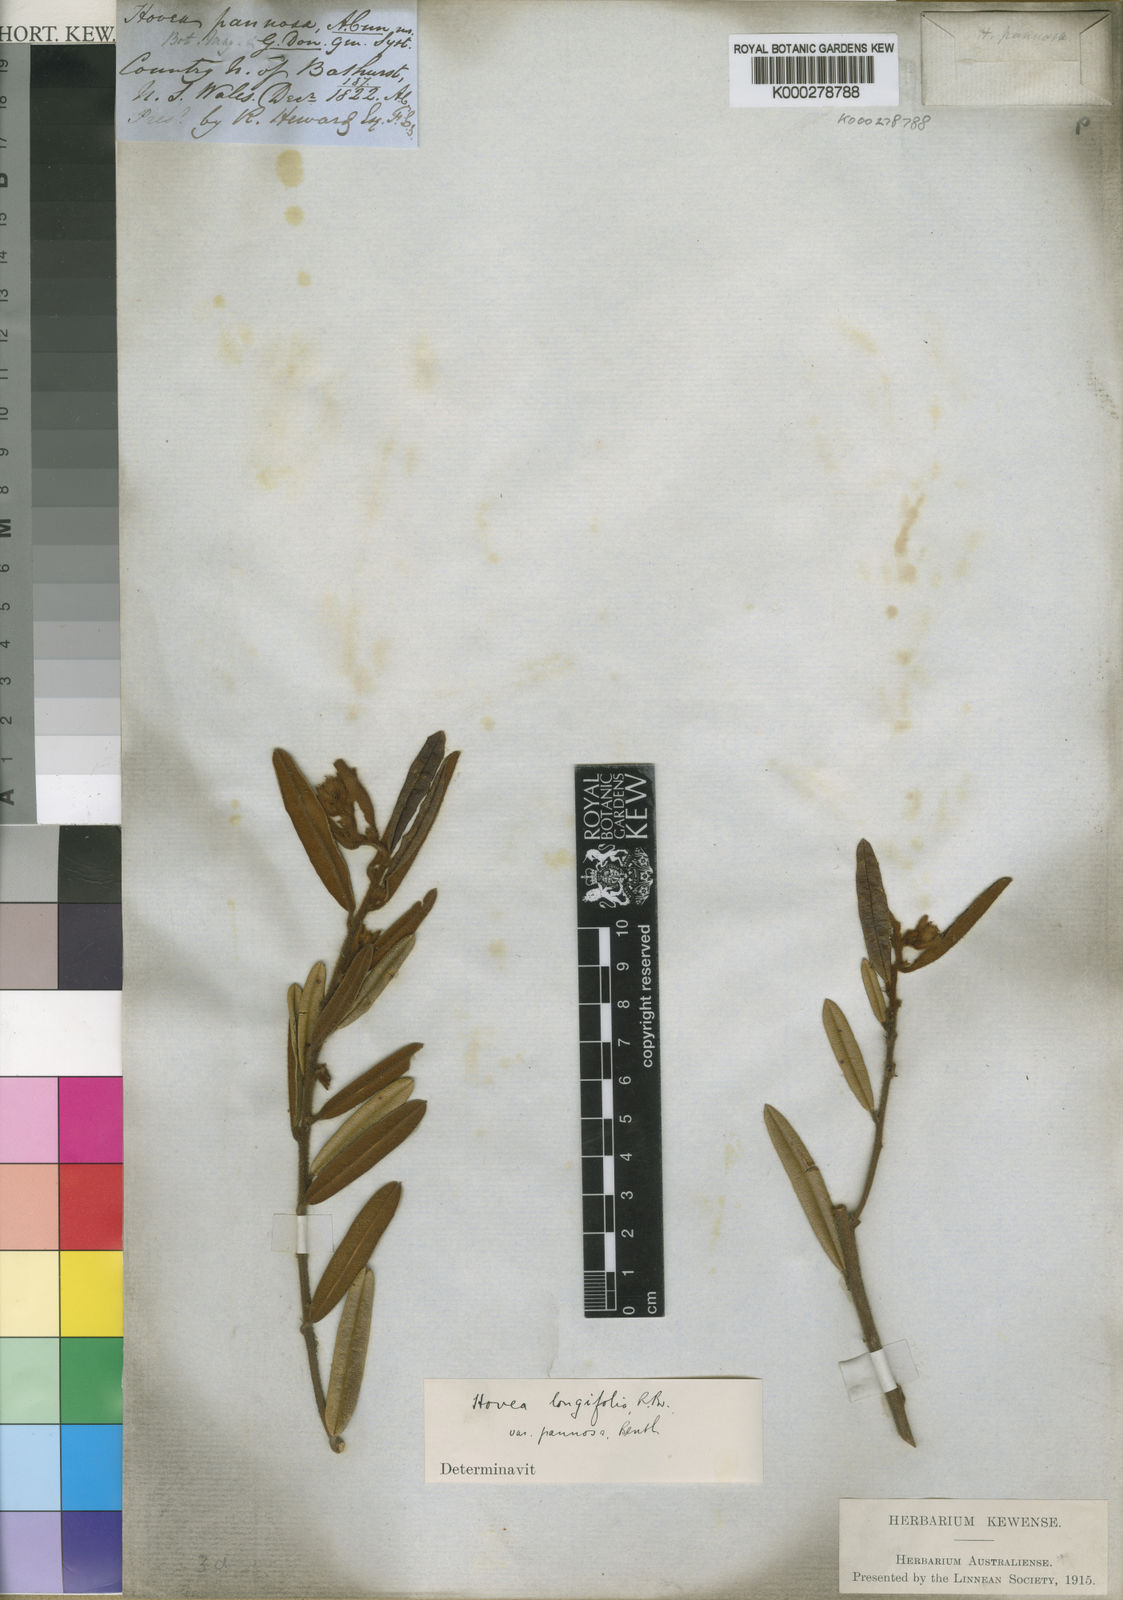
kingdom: Plantae
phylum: Tracheophyta
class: Magnoliopsida
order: Fabales
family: Fabaceae
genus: Hovea
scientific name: Hovea pannosa
